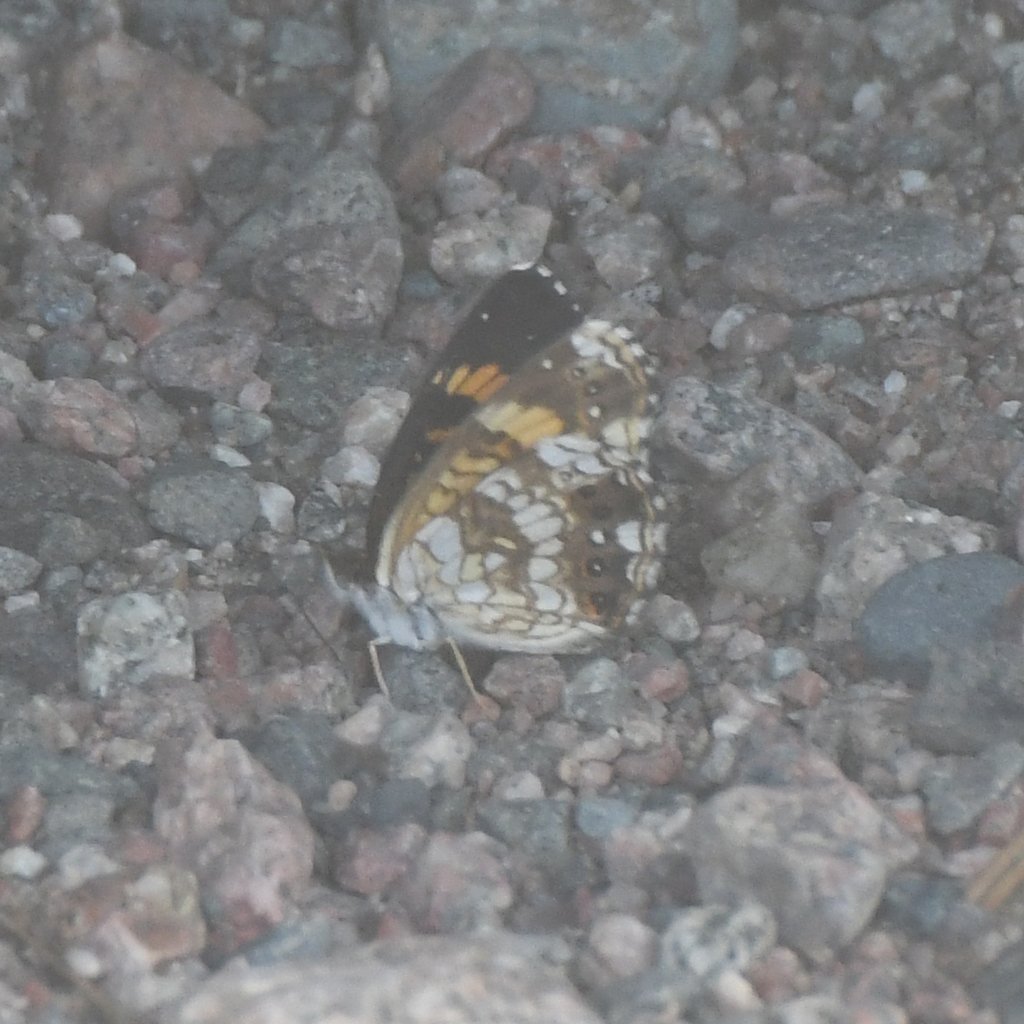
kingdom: Animalia
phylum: Arthropoda
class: Insecta
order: Lepidoptera
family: Nymphalidae
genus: Chlosyne
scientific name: Chlosyne nycteis
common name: Silvery Checkerspot
